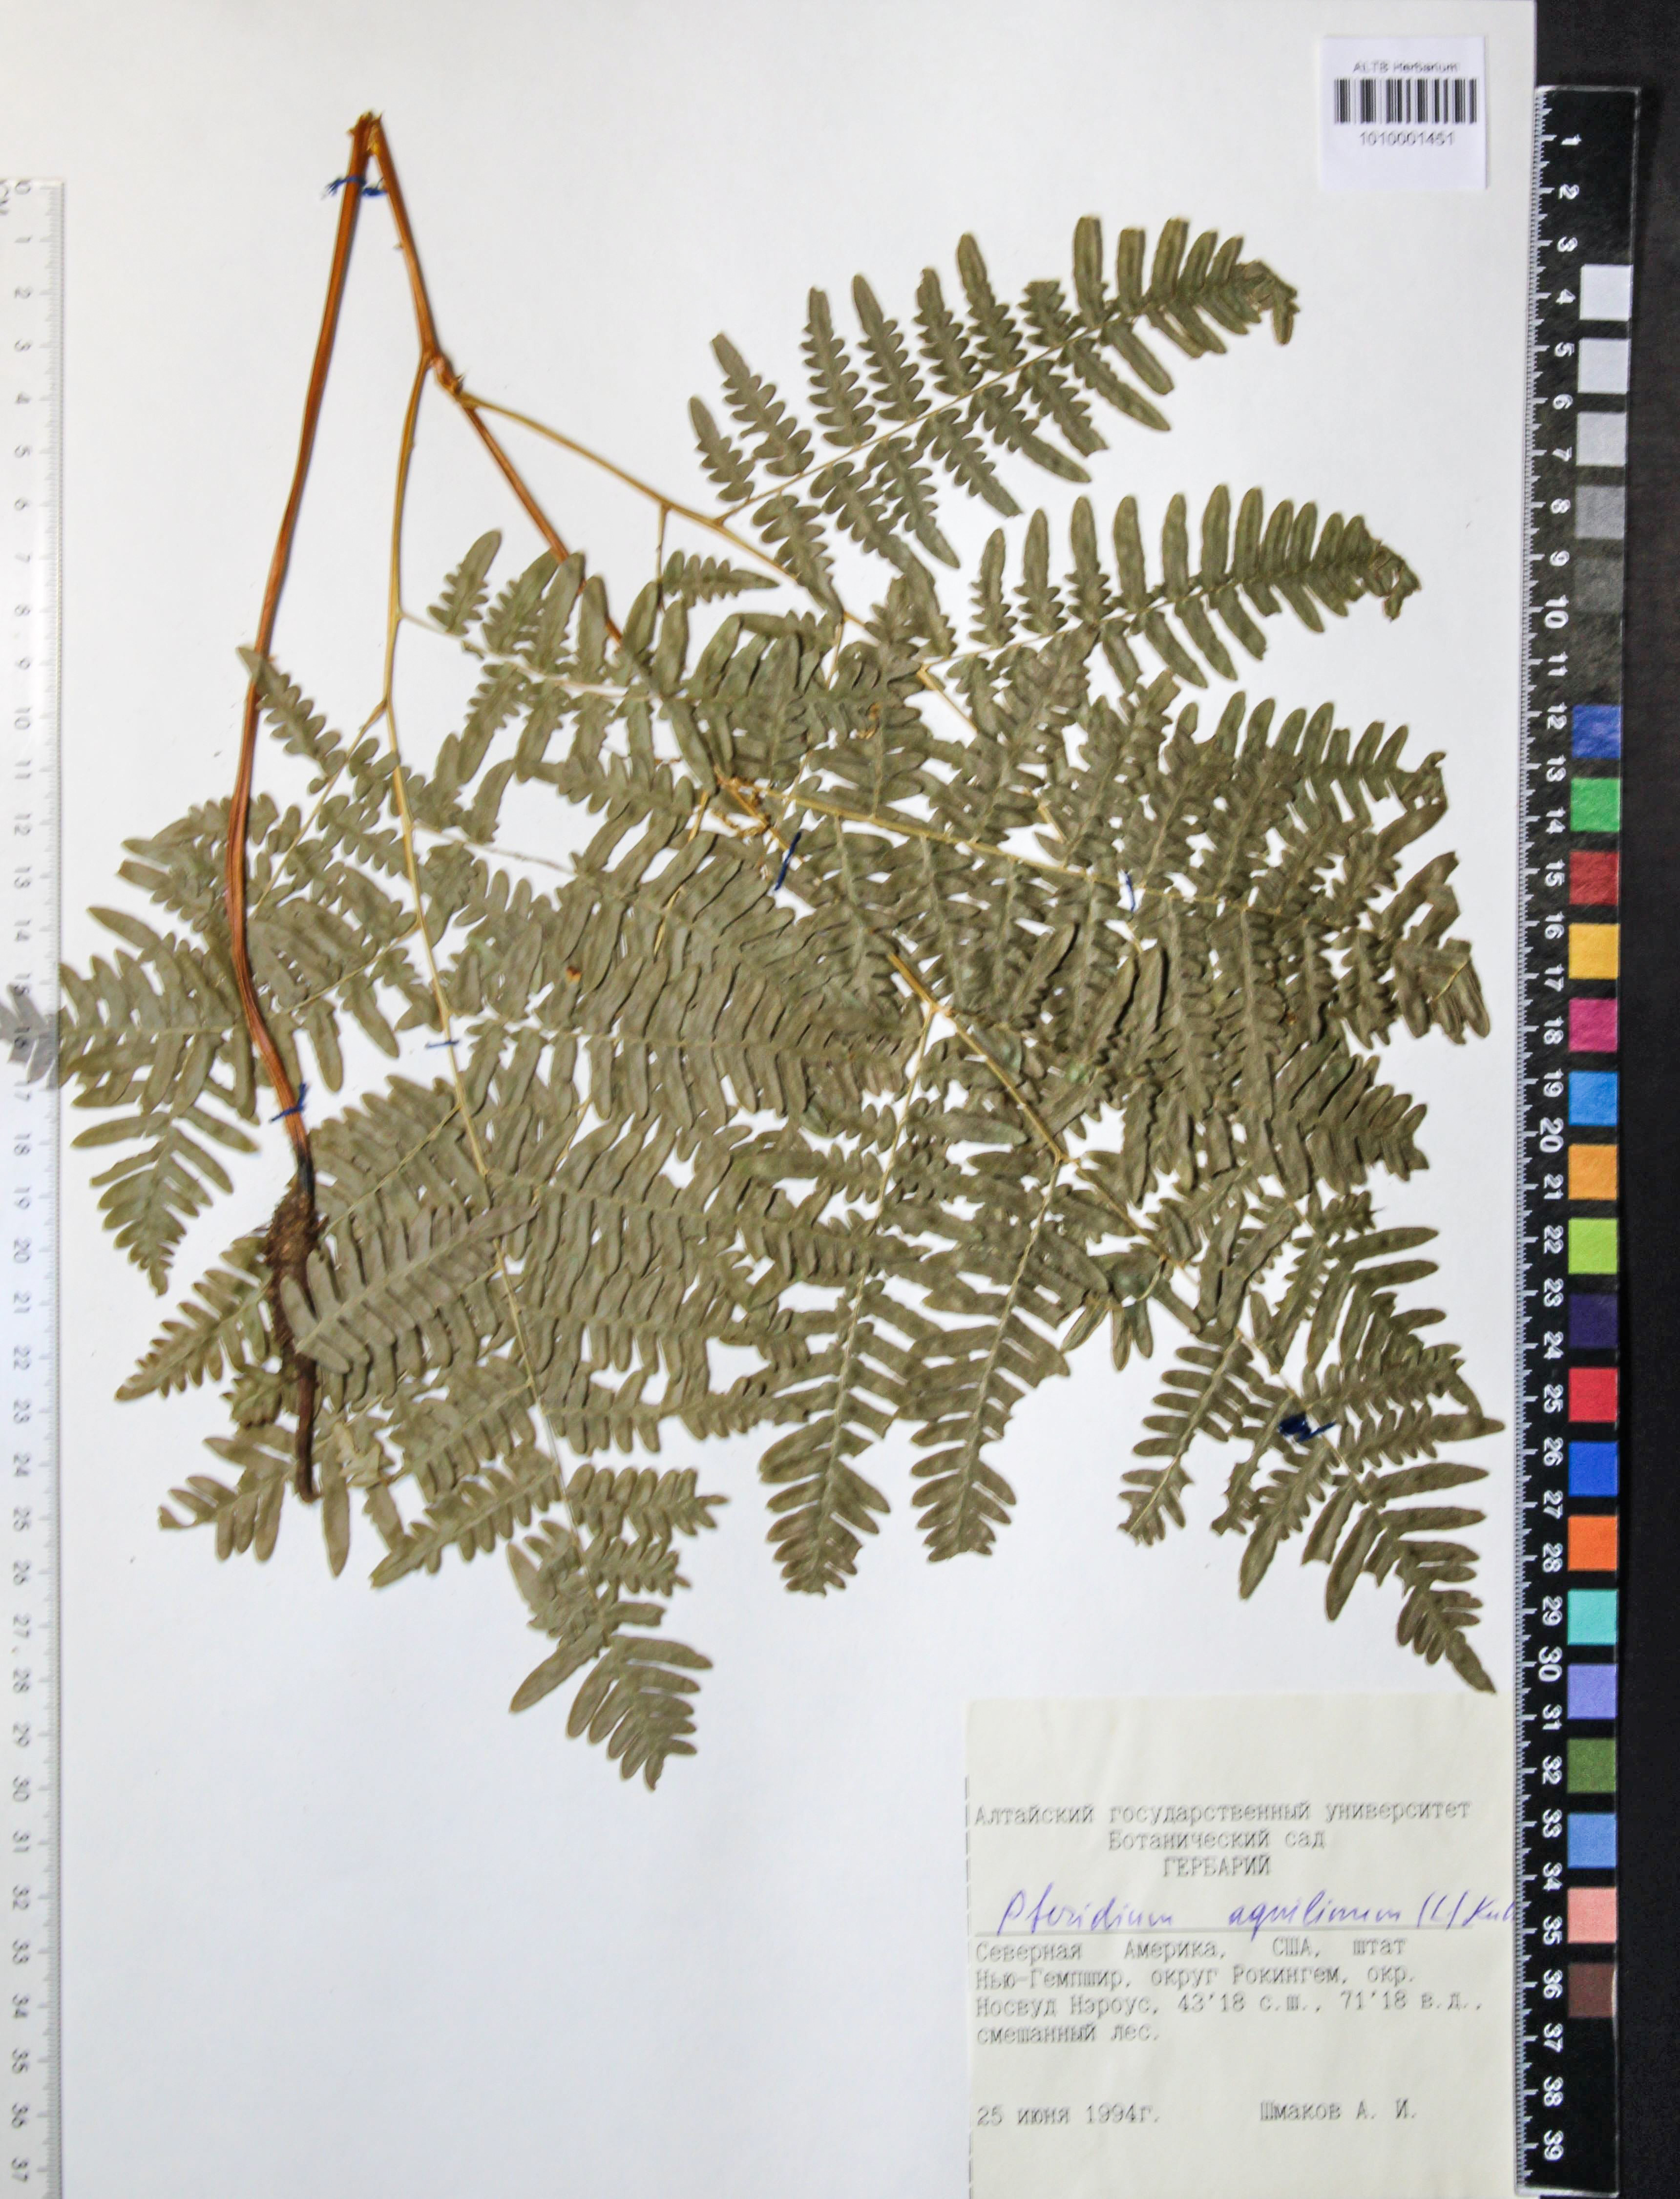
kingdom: Plantae
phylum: Tracheophyta
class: Polypodiopsida
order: Polypodiales
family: Dennstaedtiaceae
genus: Pteridium
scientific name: Pteridium aquilinum
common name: Bracken
